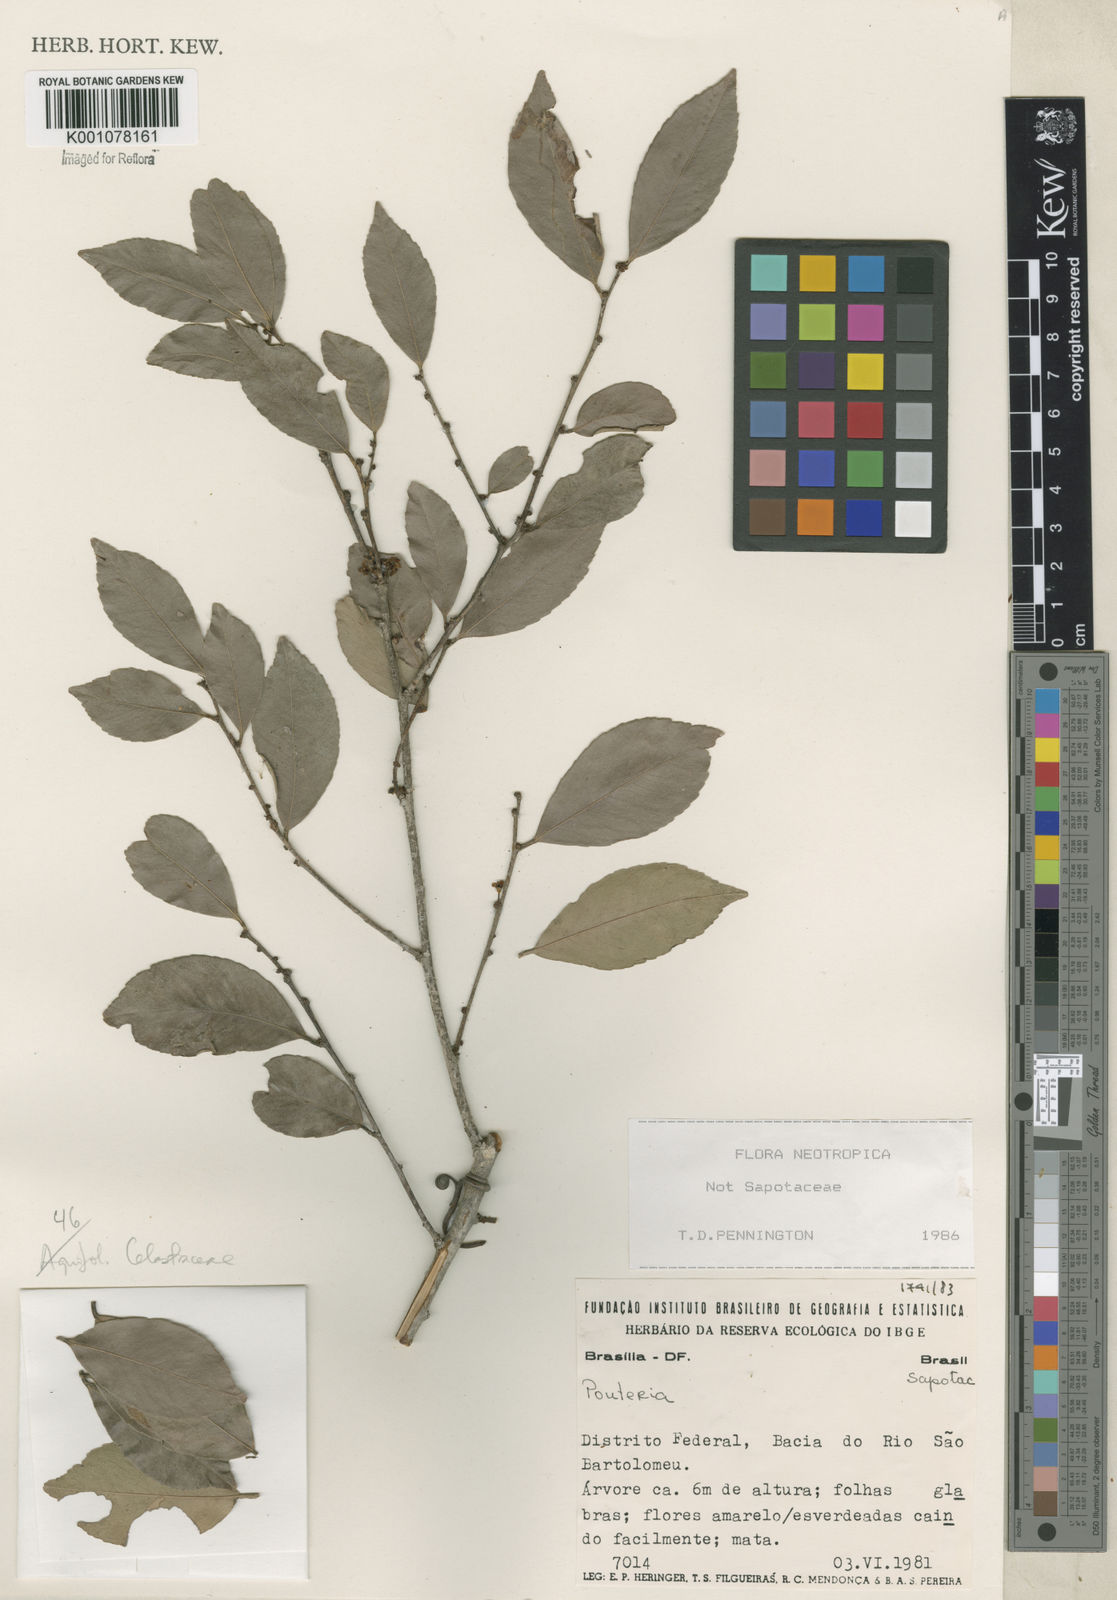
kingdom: Plantae
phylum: Tracheophyta
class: Magnoliopsida
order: Celastrales
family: Celastraceae
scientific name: Celastraceae
